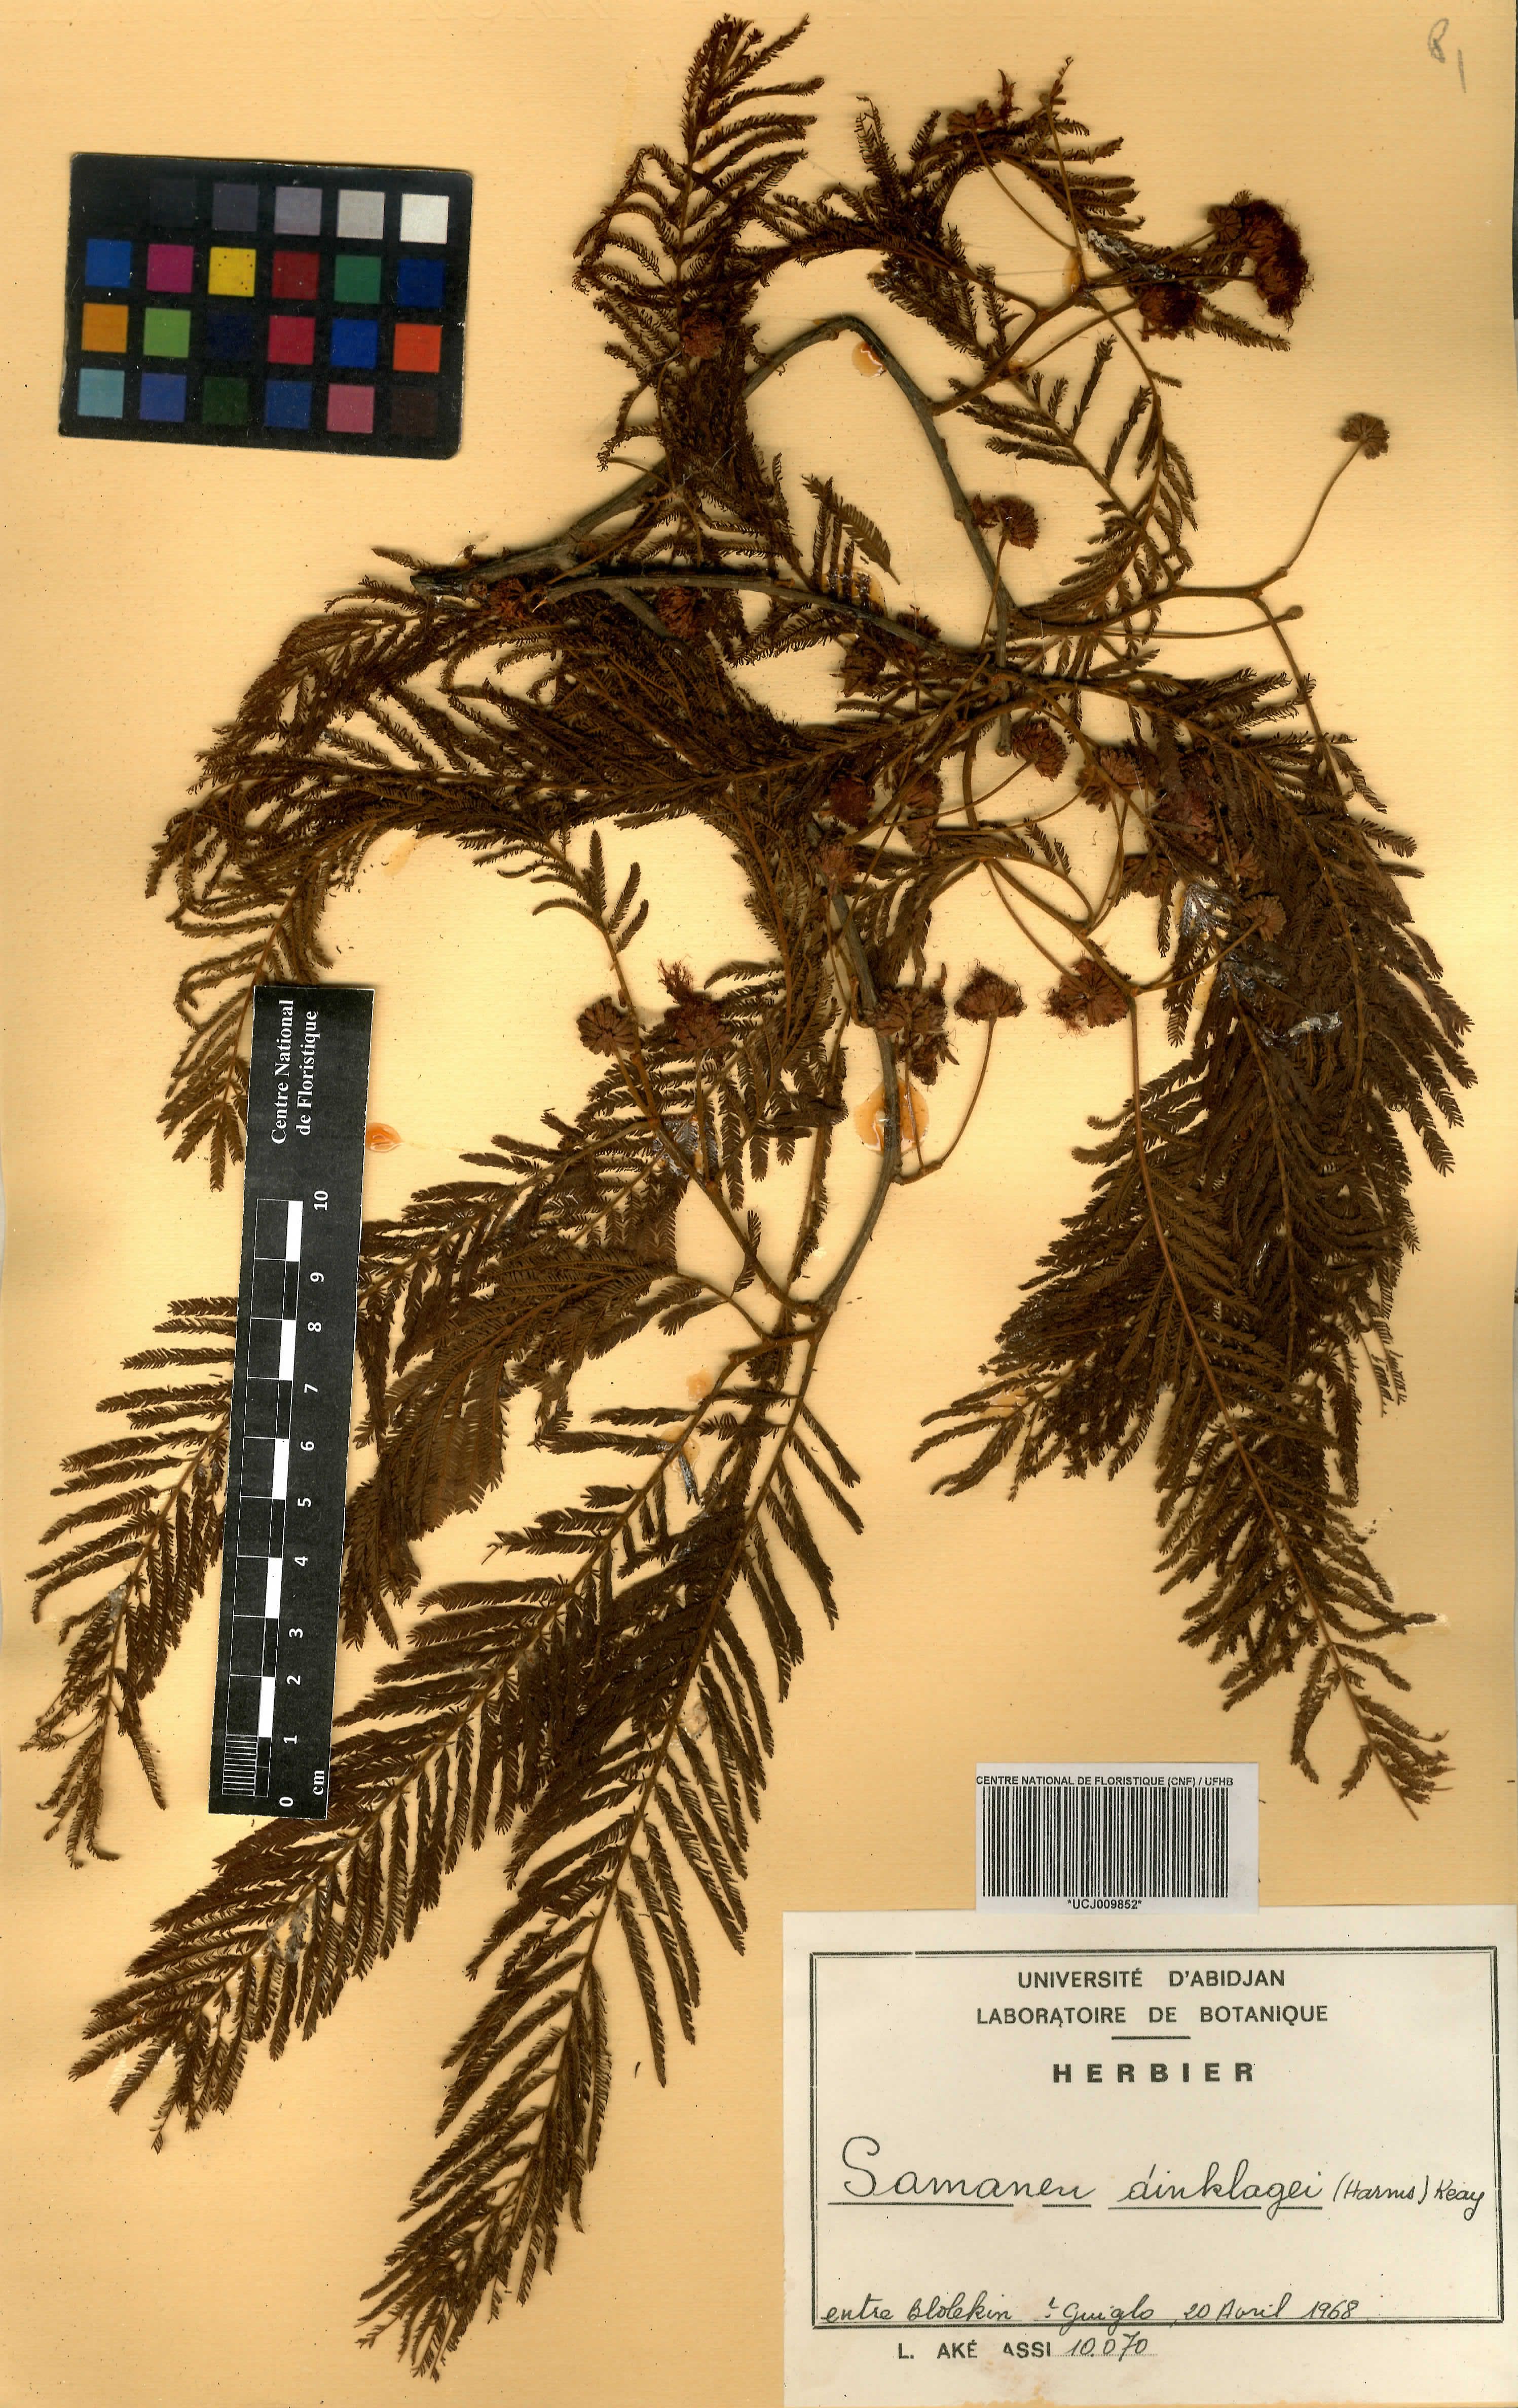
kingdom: Plantae
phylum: Tracheophyta
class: Magnoliopsida
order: Fabales
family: Fabaceae
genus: Albizia
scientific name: Albizia dinklagei
